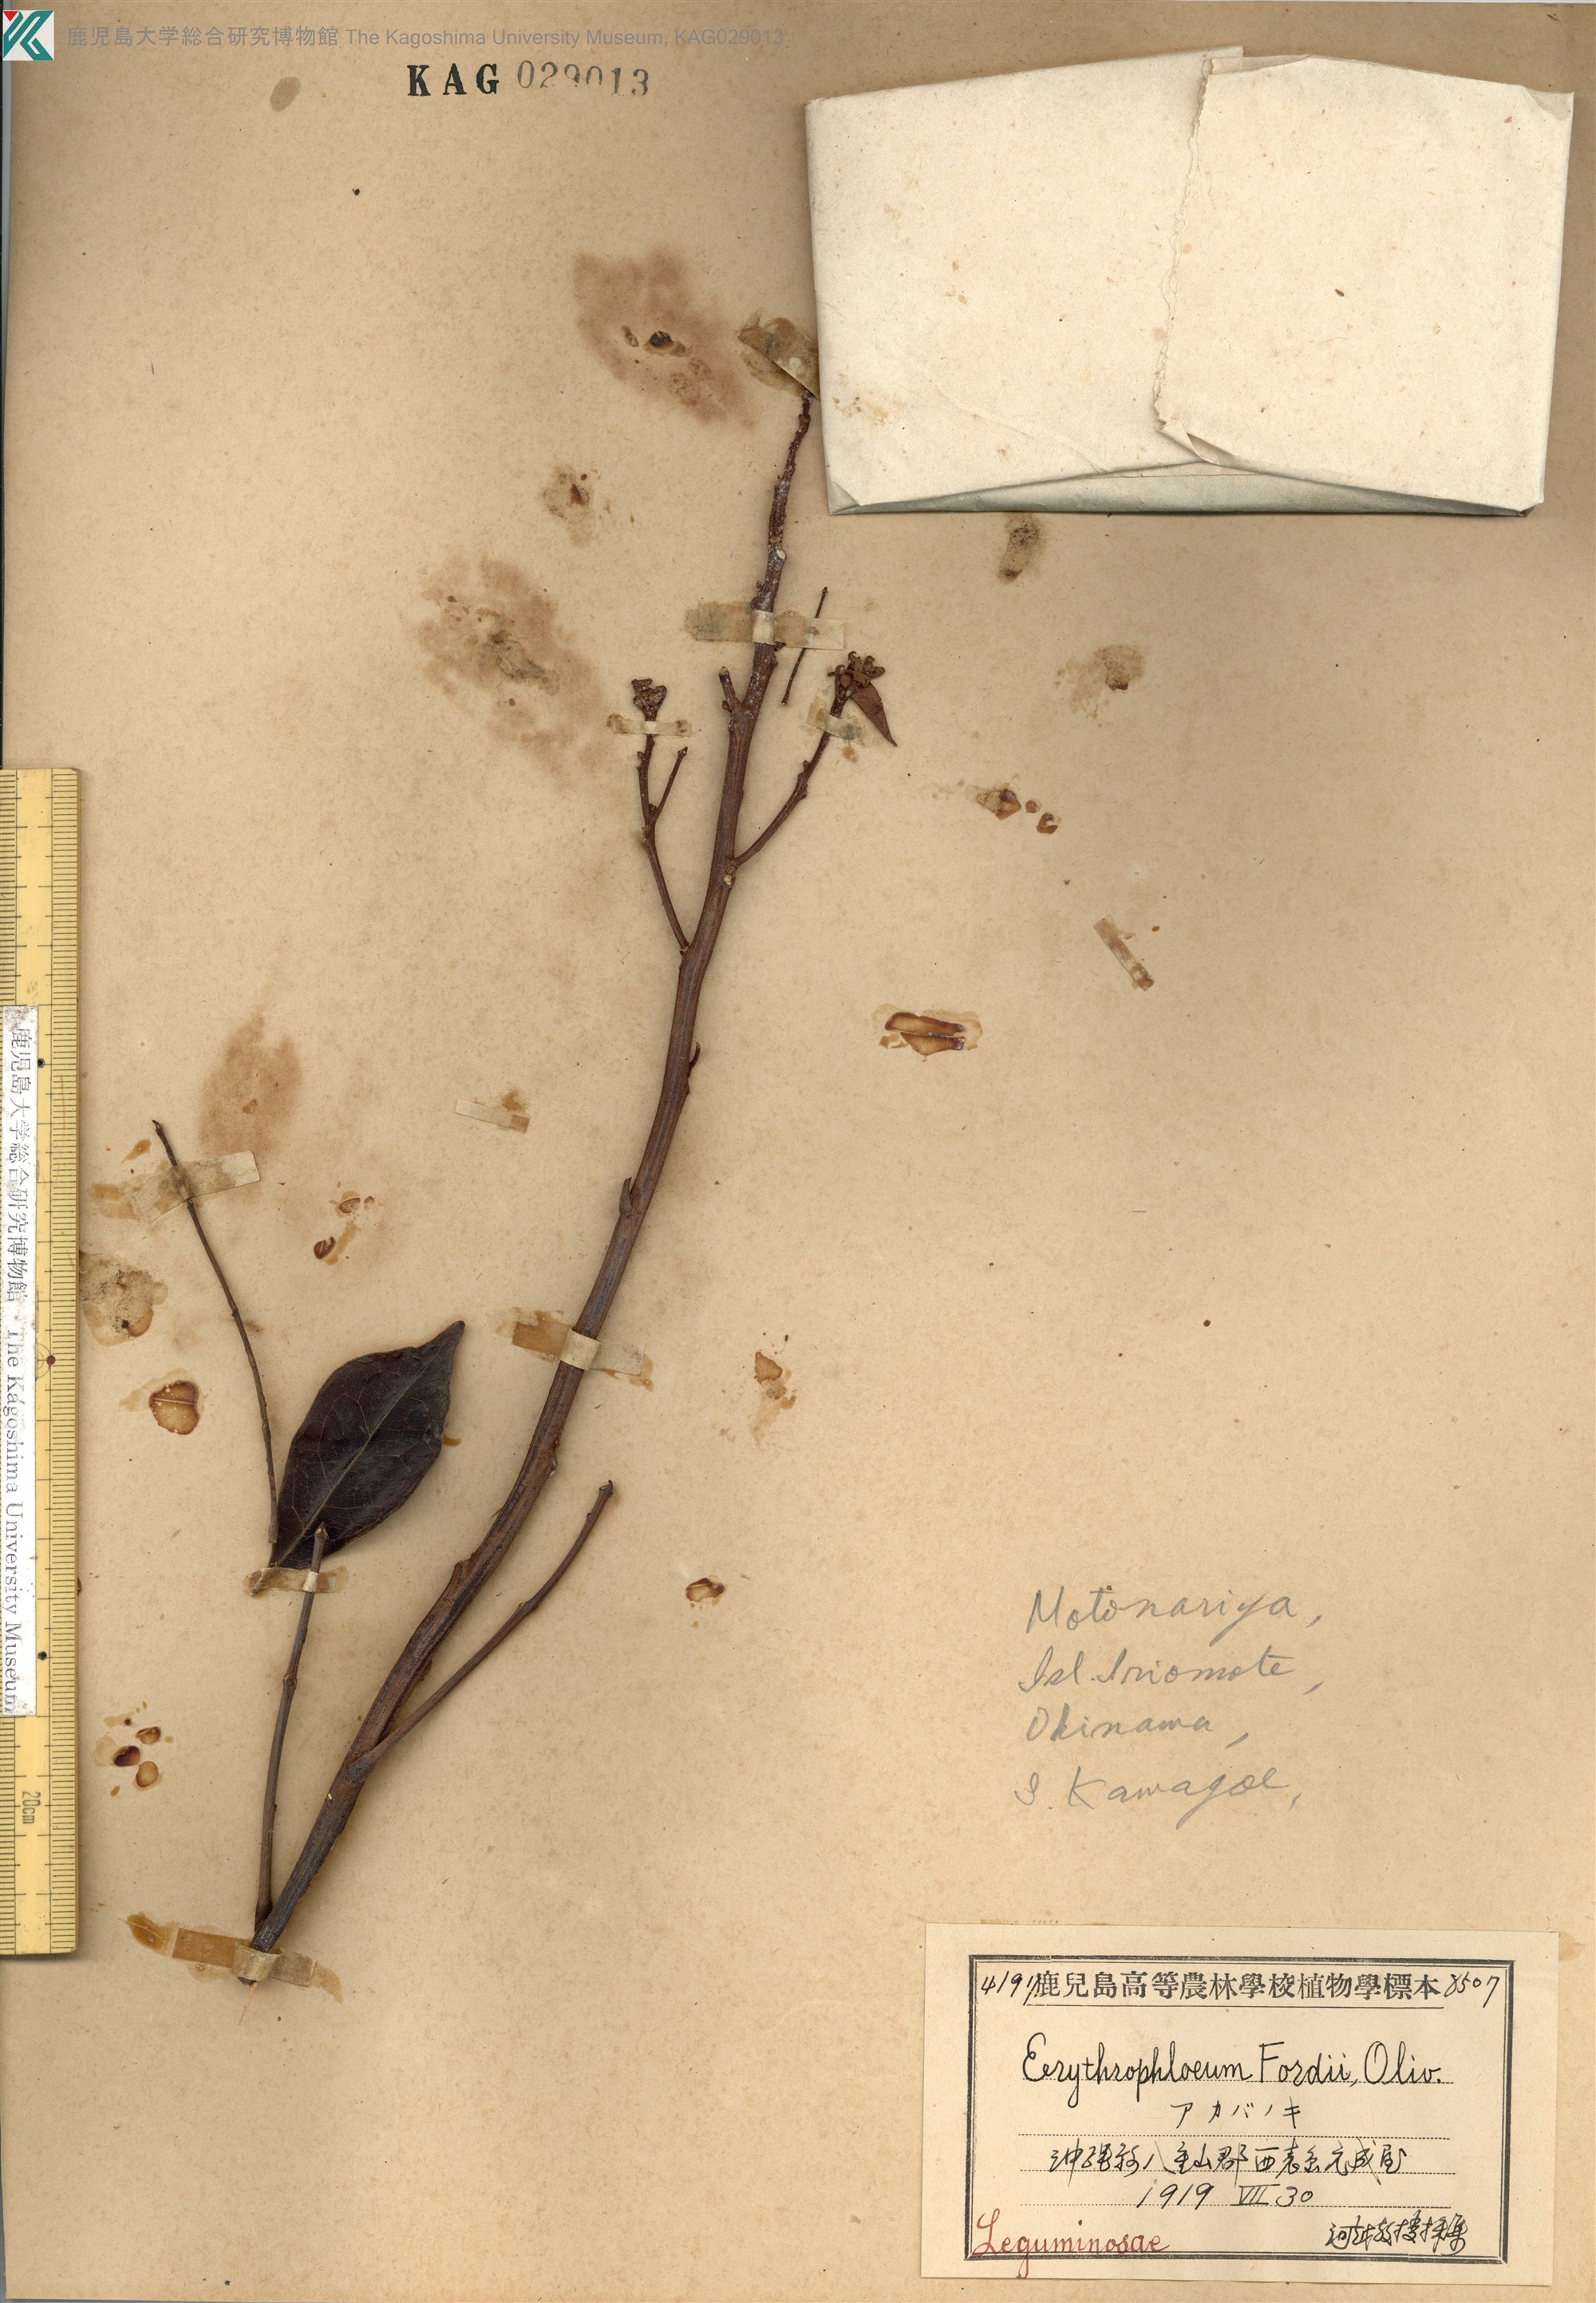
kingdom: Plantae
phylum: Tracheophyta
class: Magnoliopsida
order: Fabales
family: Fabaceae
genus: Archidendron
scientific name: Archidendron lucidum
